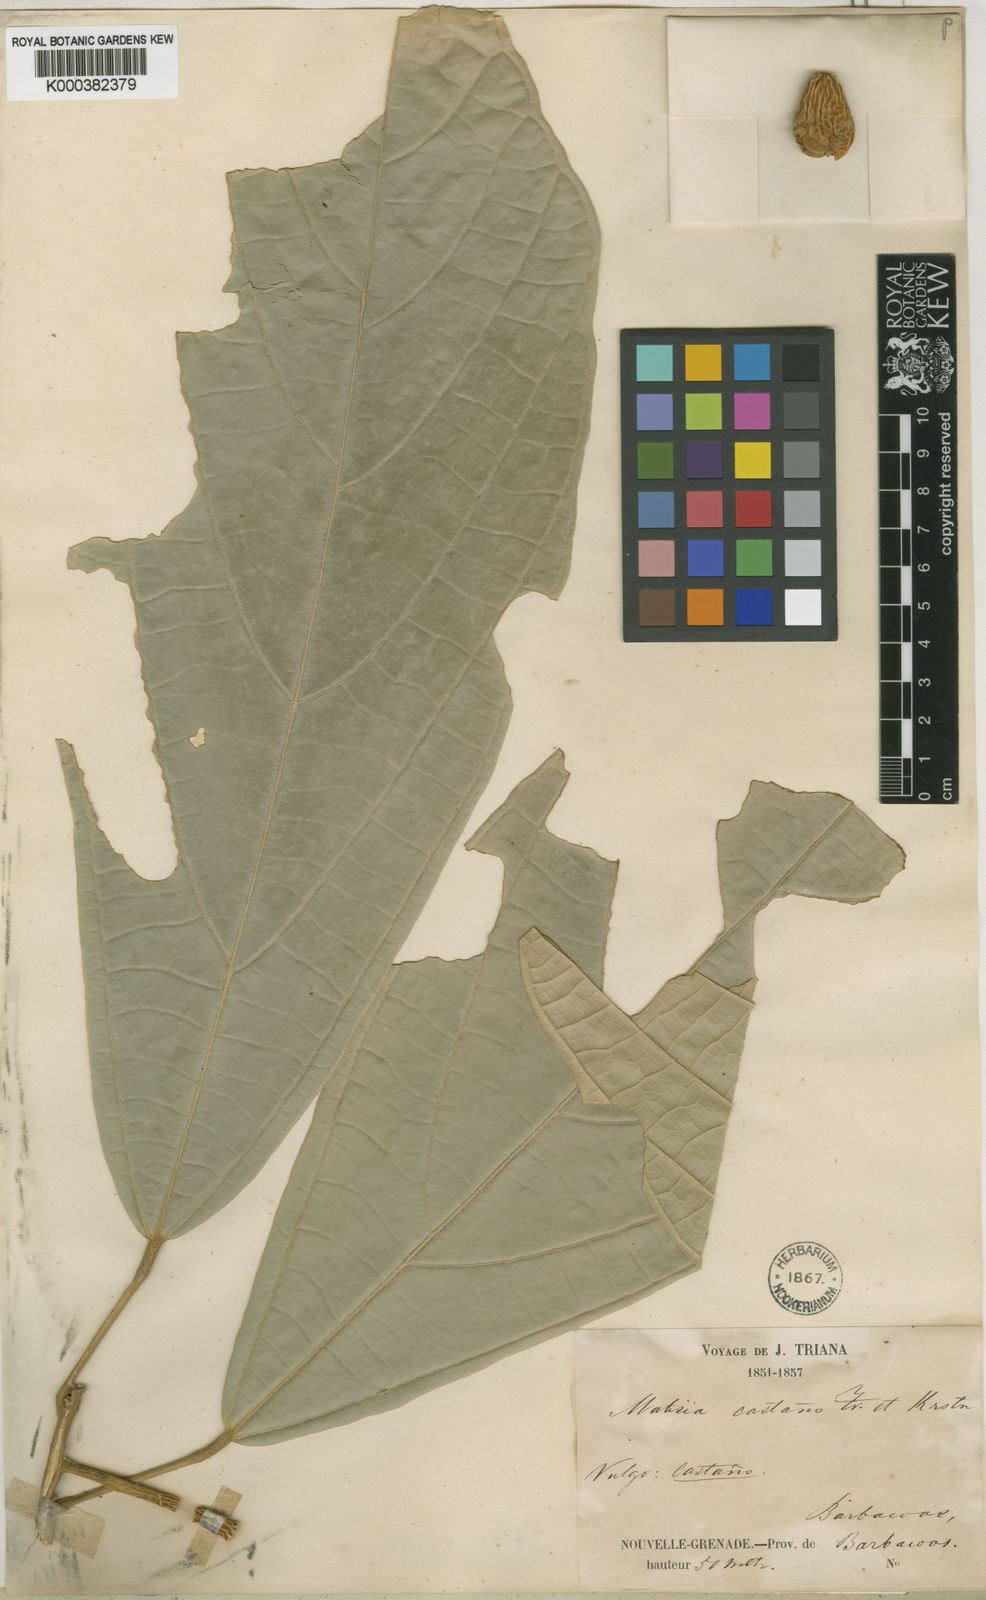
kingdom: Plantae
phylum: Tracheophyta
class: Magnoliopsida
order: Malvales
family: Malvaceae
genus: Matisia
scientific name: Matisia castano
